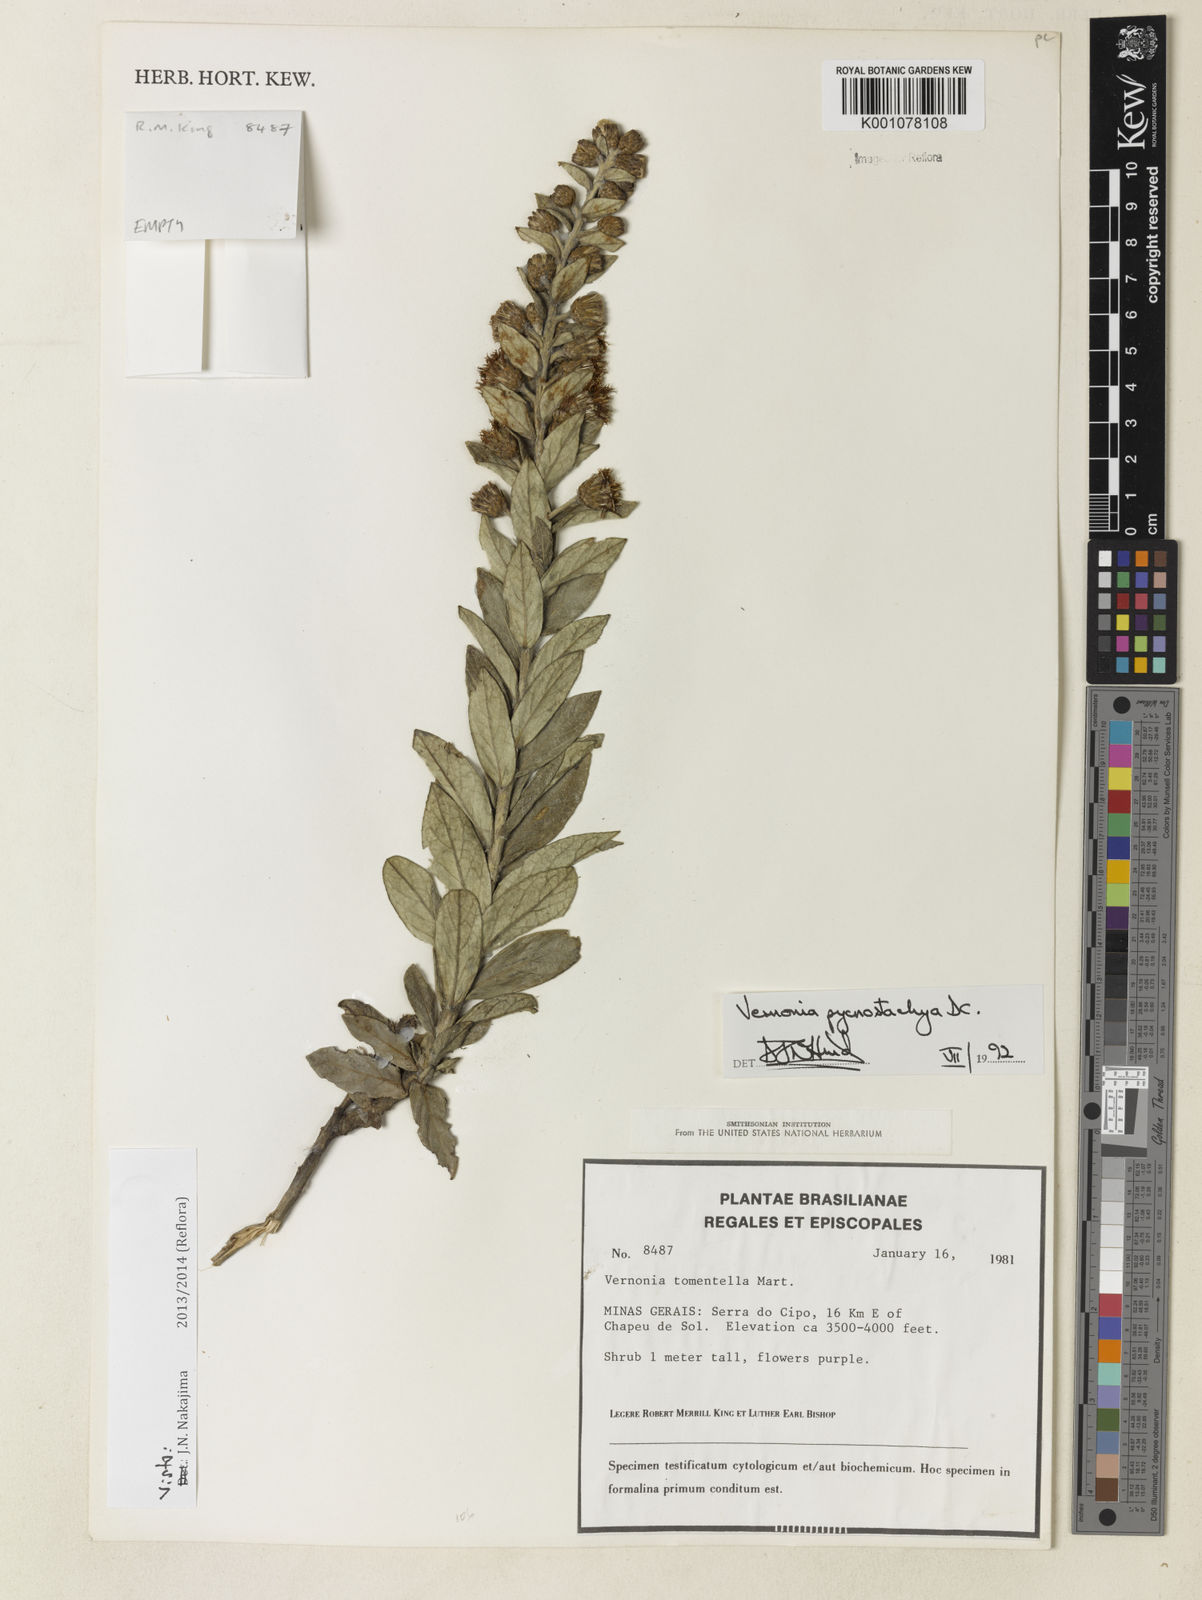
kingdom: Plantae
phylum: Tracheophyta
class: Magnoliopsida
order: Asterales
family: Asteraceae
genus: Lessingianthus
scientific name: Lessingianthus pycnostachyus
